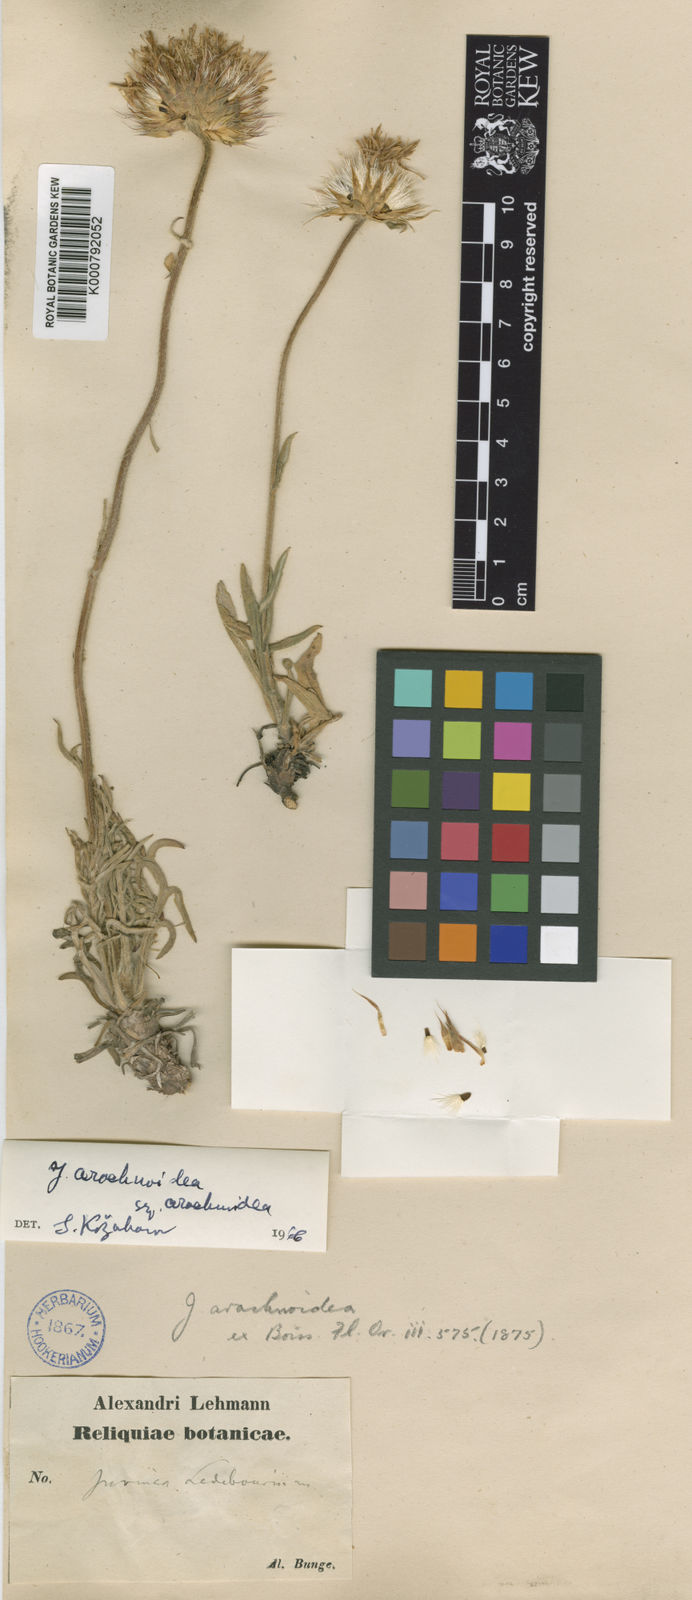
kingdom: Plantae
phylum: Tracheophyta
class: Magnoliopsida
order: Asterales
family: Asteraceae
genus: Jurinea
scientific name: Jurinea
